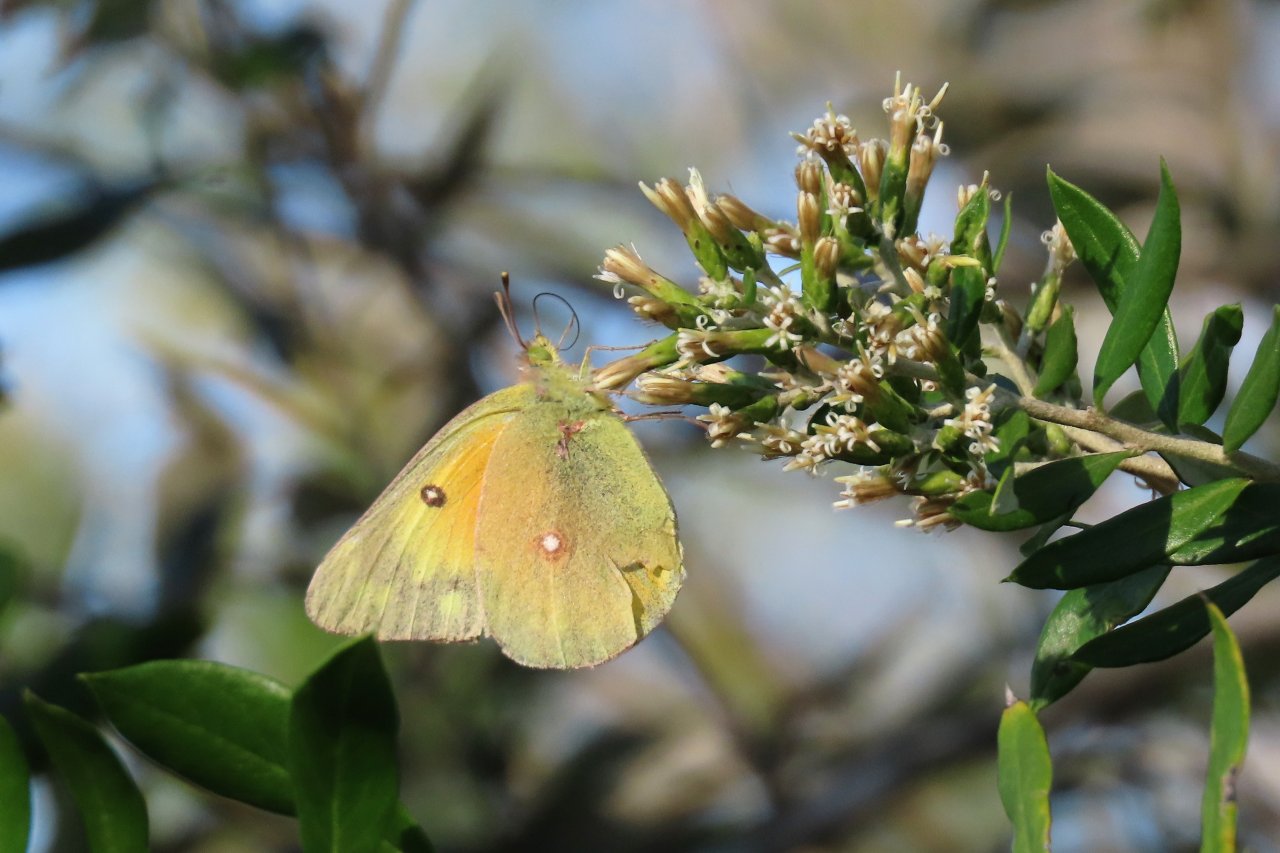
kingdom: Animalia
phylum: Arthropoda
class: Insecta
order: Lepidoptera
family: Pieridae
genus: Colias
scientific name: Colias eurytheme
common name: Orange Sulphur
